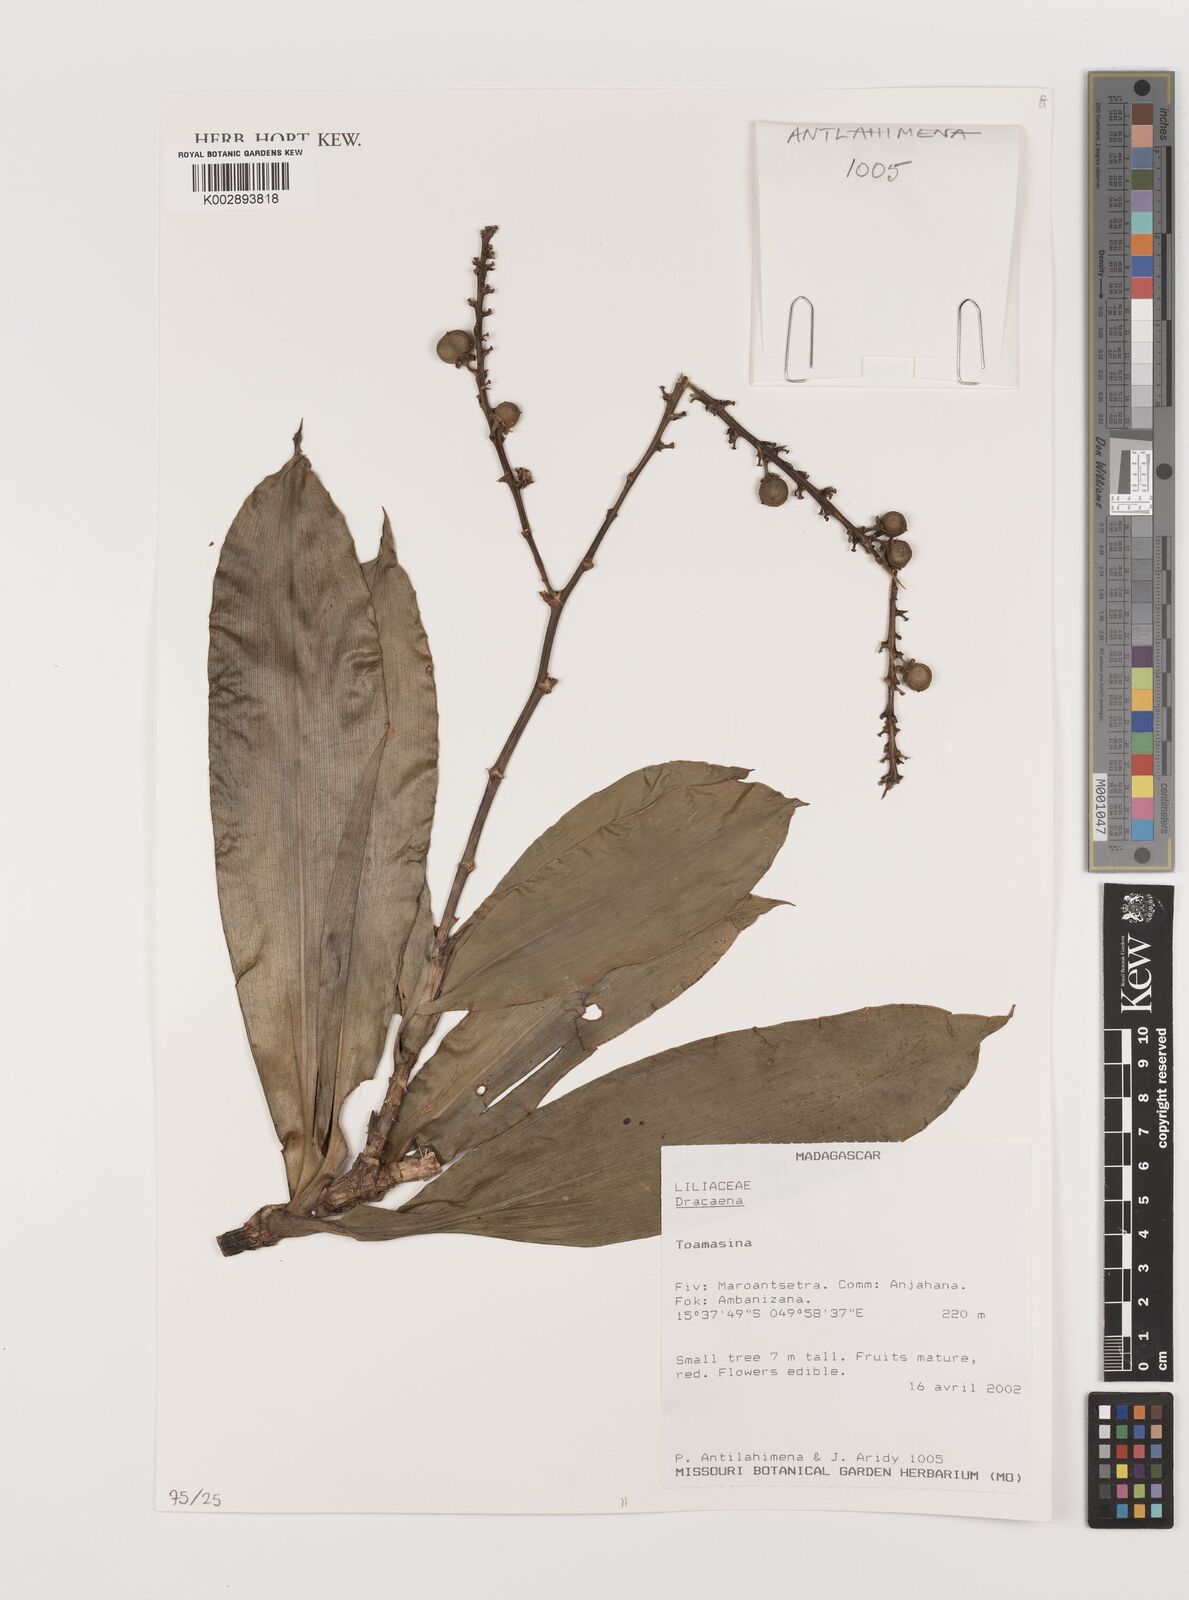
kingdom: Plantae
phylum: Tracheophyta
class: Liliopsida
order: Asparagales
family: Asparagaceae
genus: Dracaena
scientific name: Dracaena
